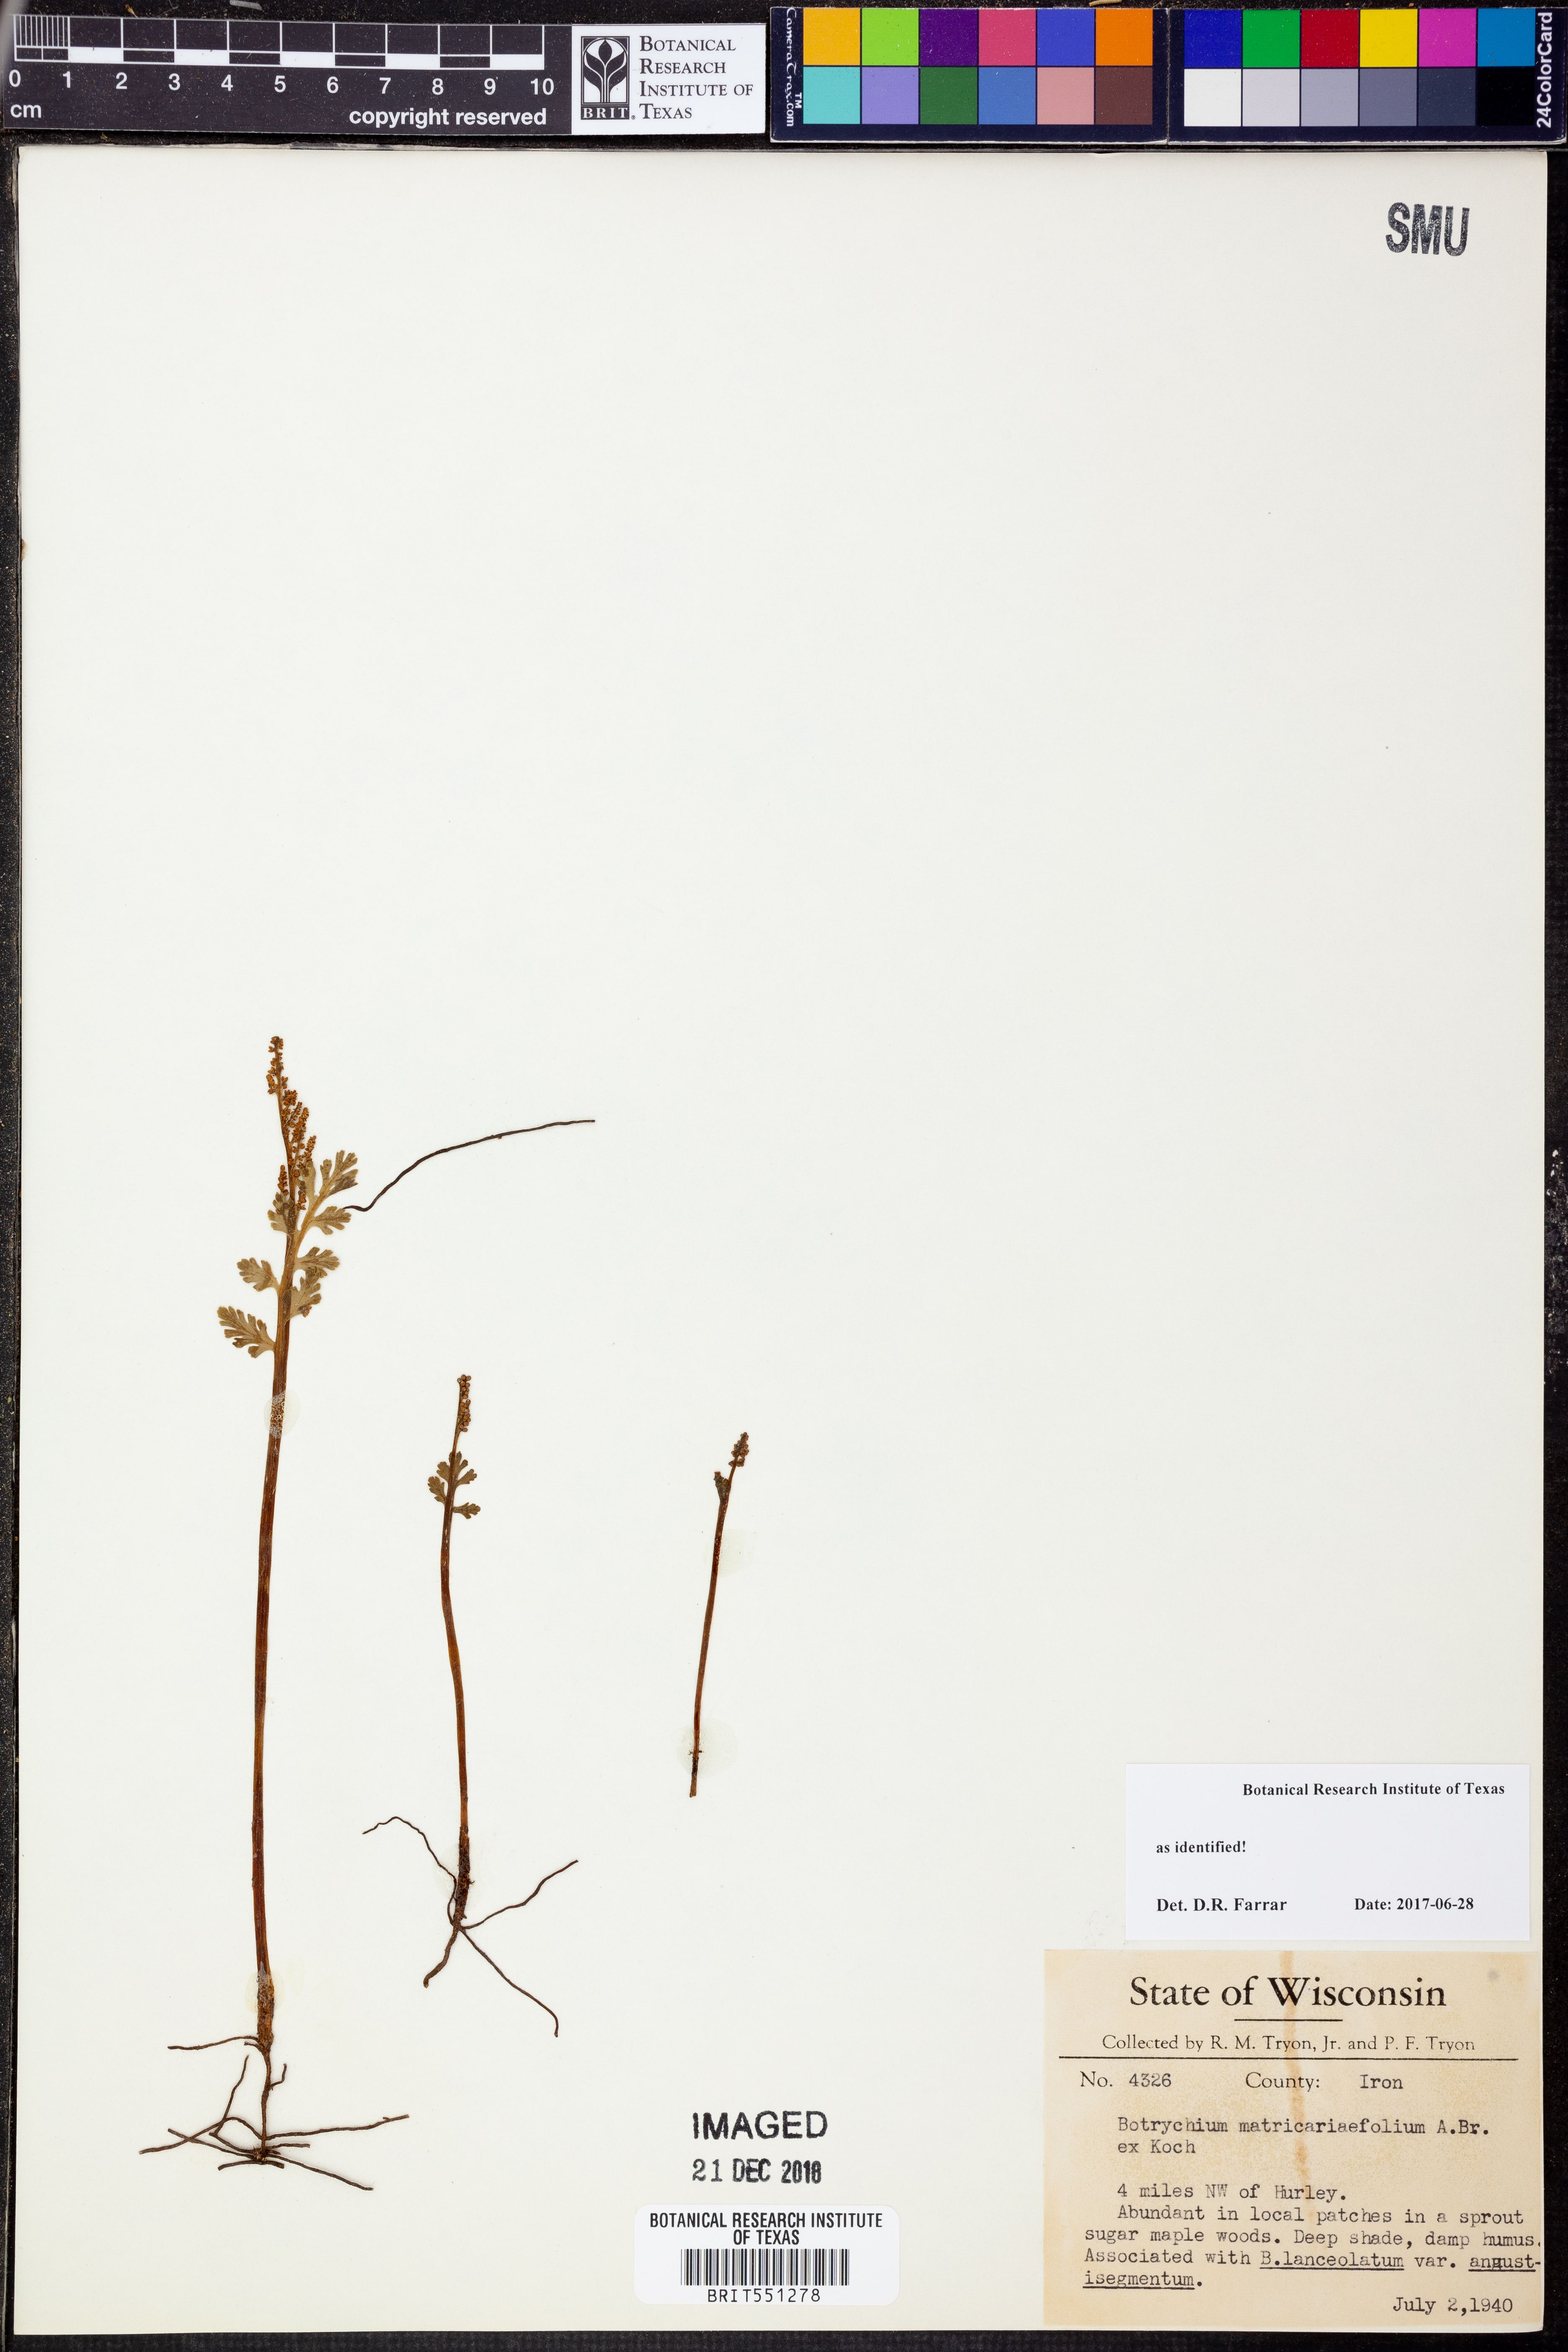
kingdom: Plantae
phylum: Tracheophyta
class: Polypodiopsida
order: Ophioglossales
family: Ophioglossaceae
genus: Botrychium
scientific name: Botrychium matricariifolium
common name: Branched moonwort
